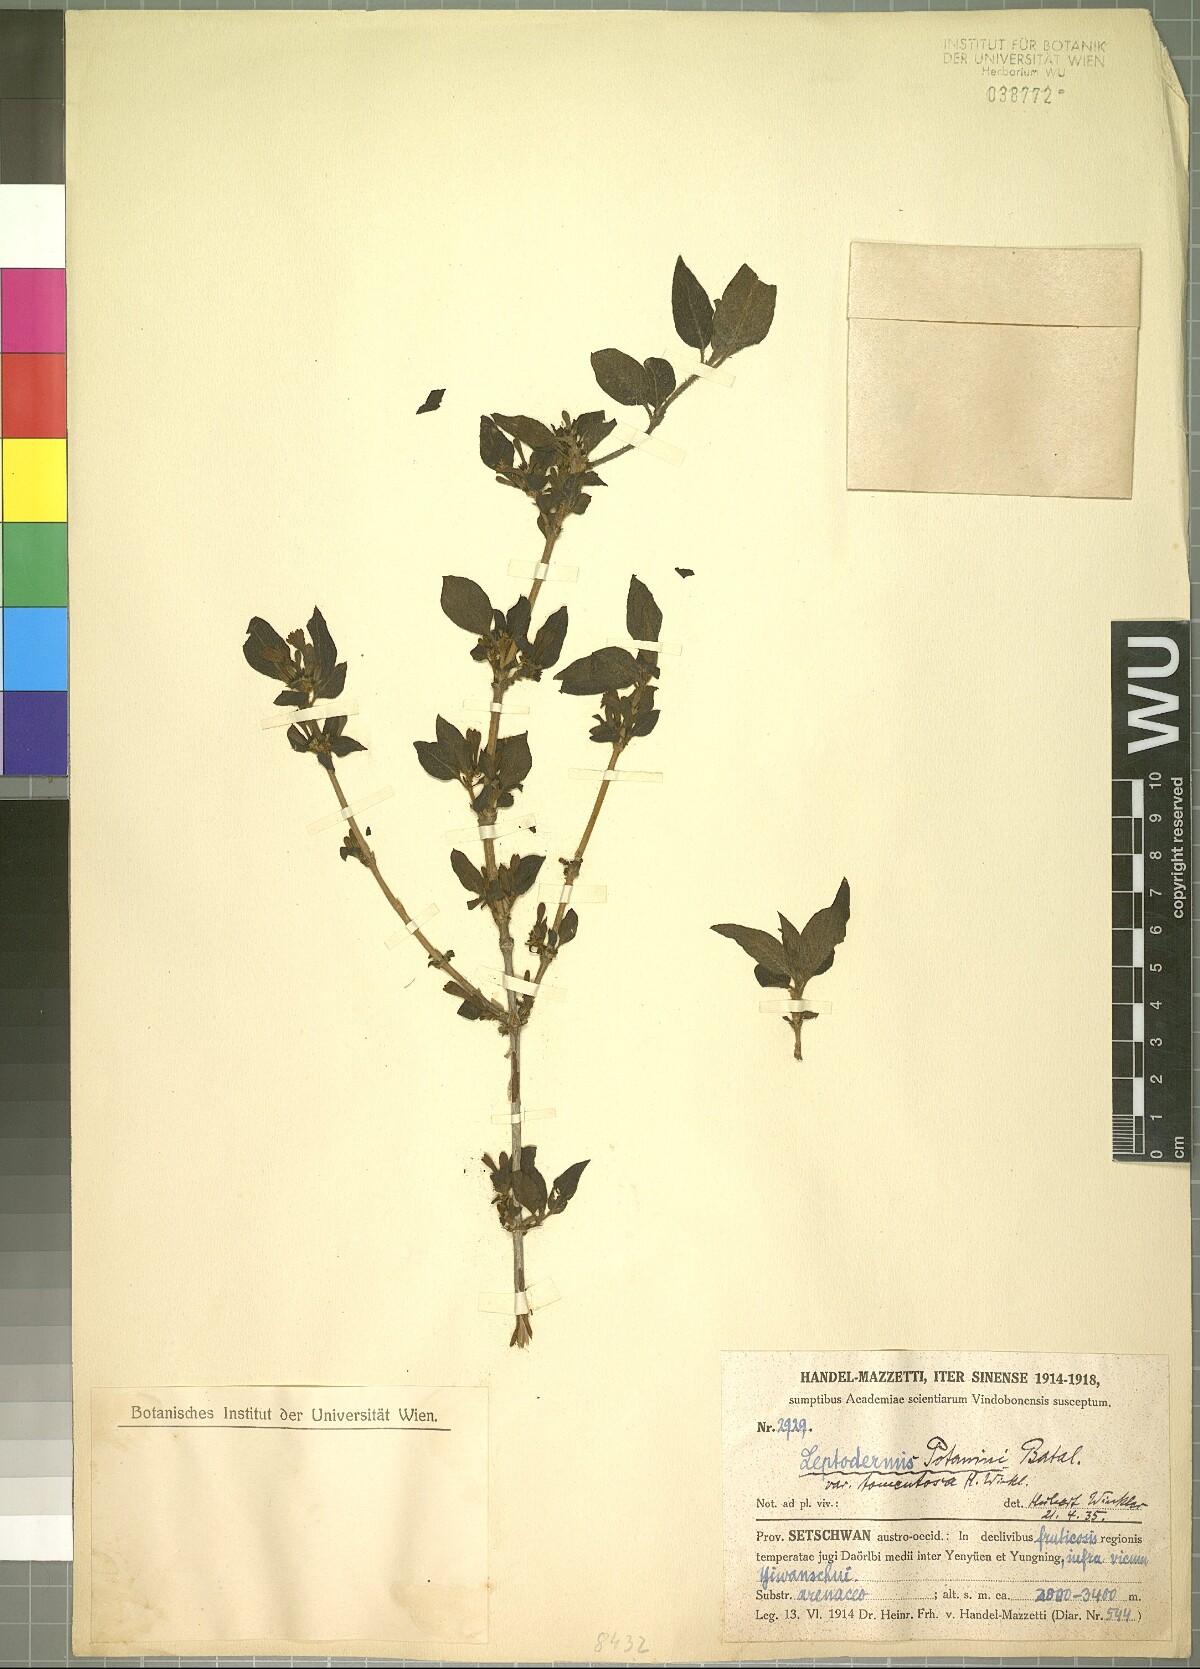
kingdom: Plantae
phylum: Tracheophyta
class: Magnoliopsida
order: Gentianales
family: Rubiaceae
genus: Leptodermis
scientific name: Leptodermis potaninii
